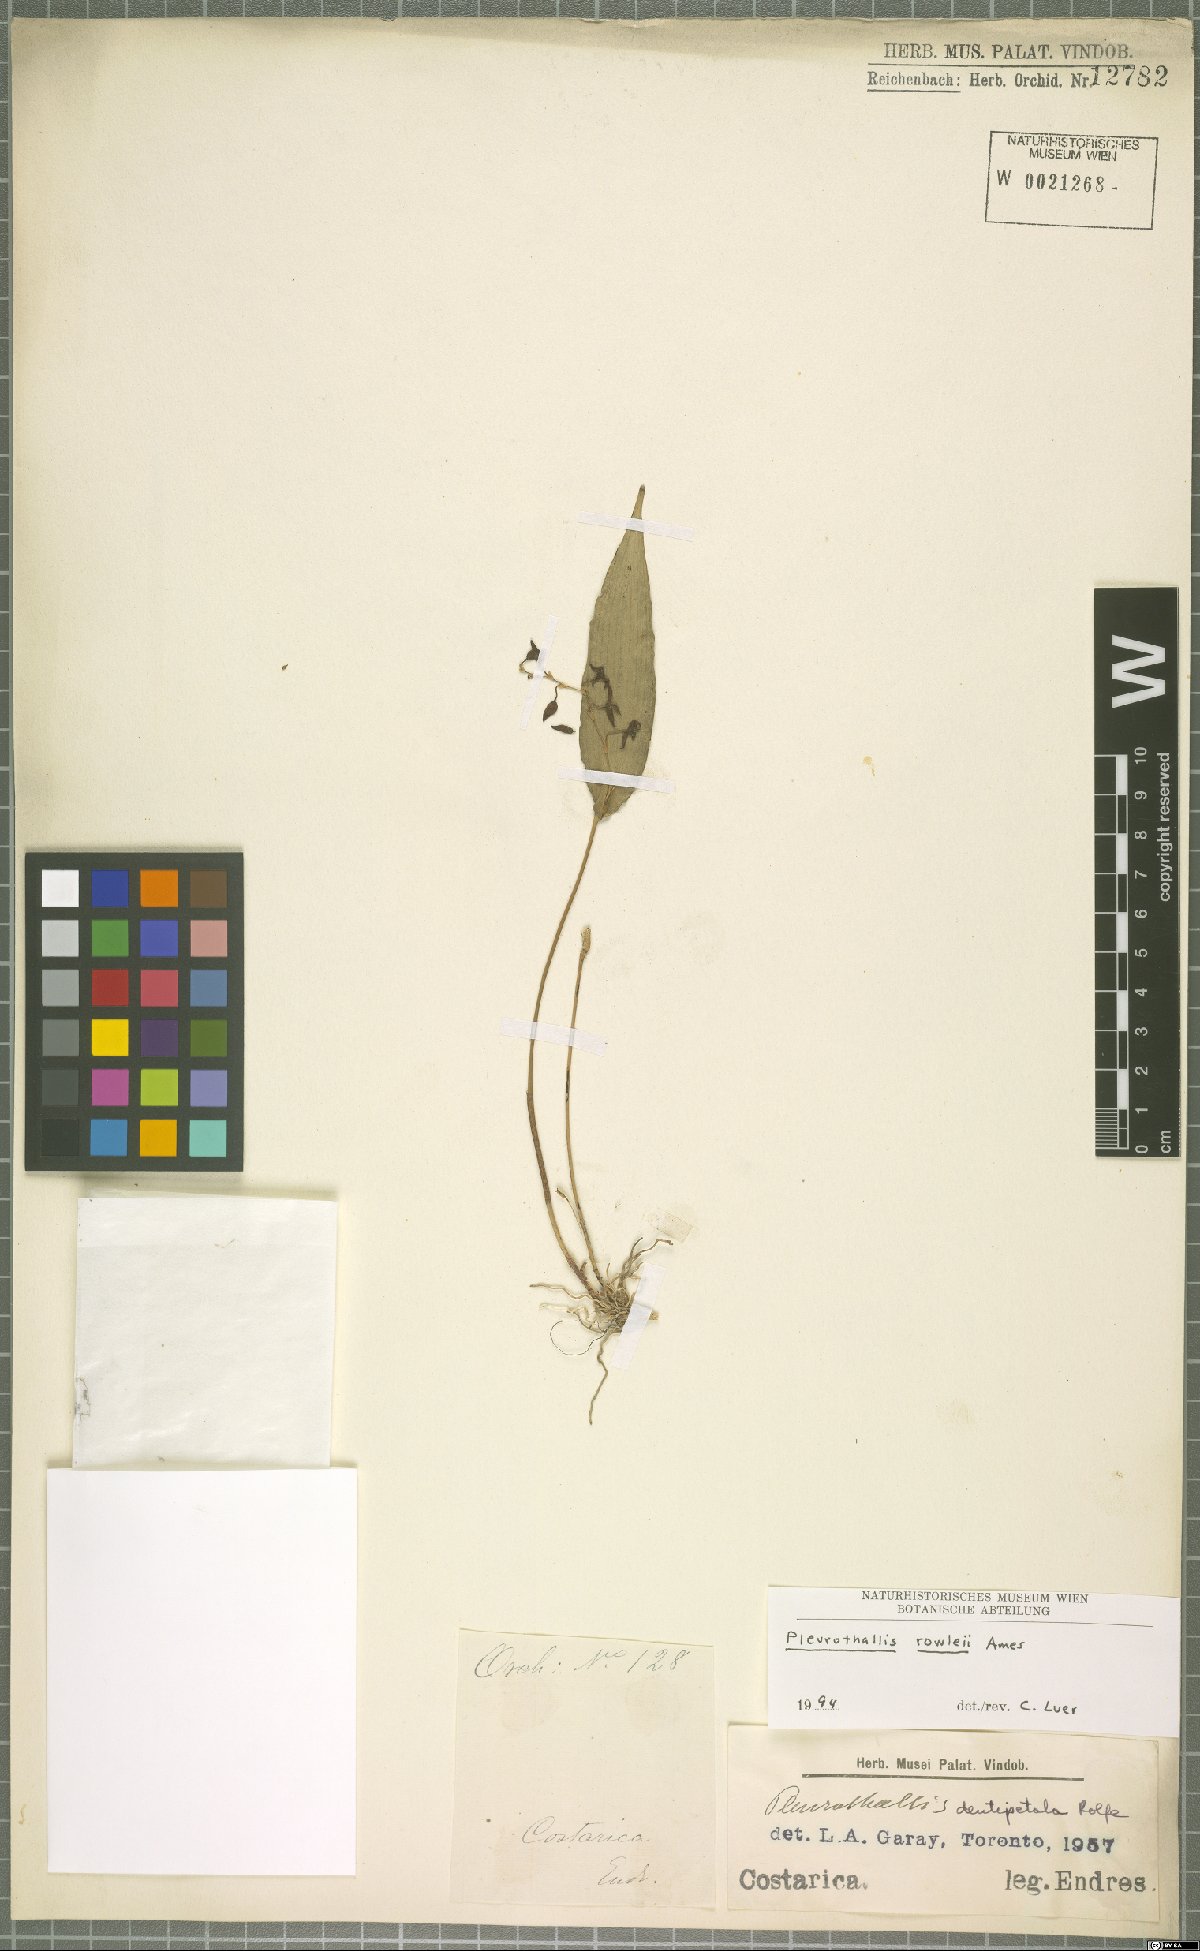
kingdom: Plantae
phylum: Tracheophyta
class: Liliopsida
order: Asparagales
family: Orchidaceae
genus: Pleurothallis
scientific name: Pleurothallis rowleei
